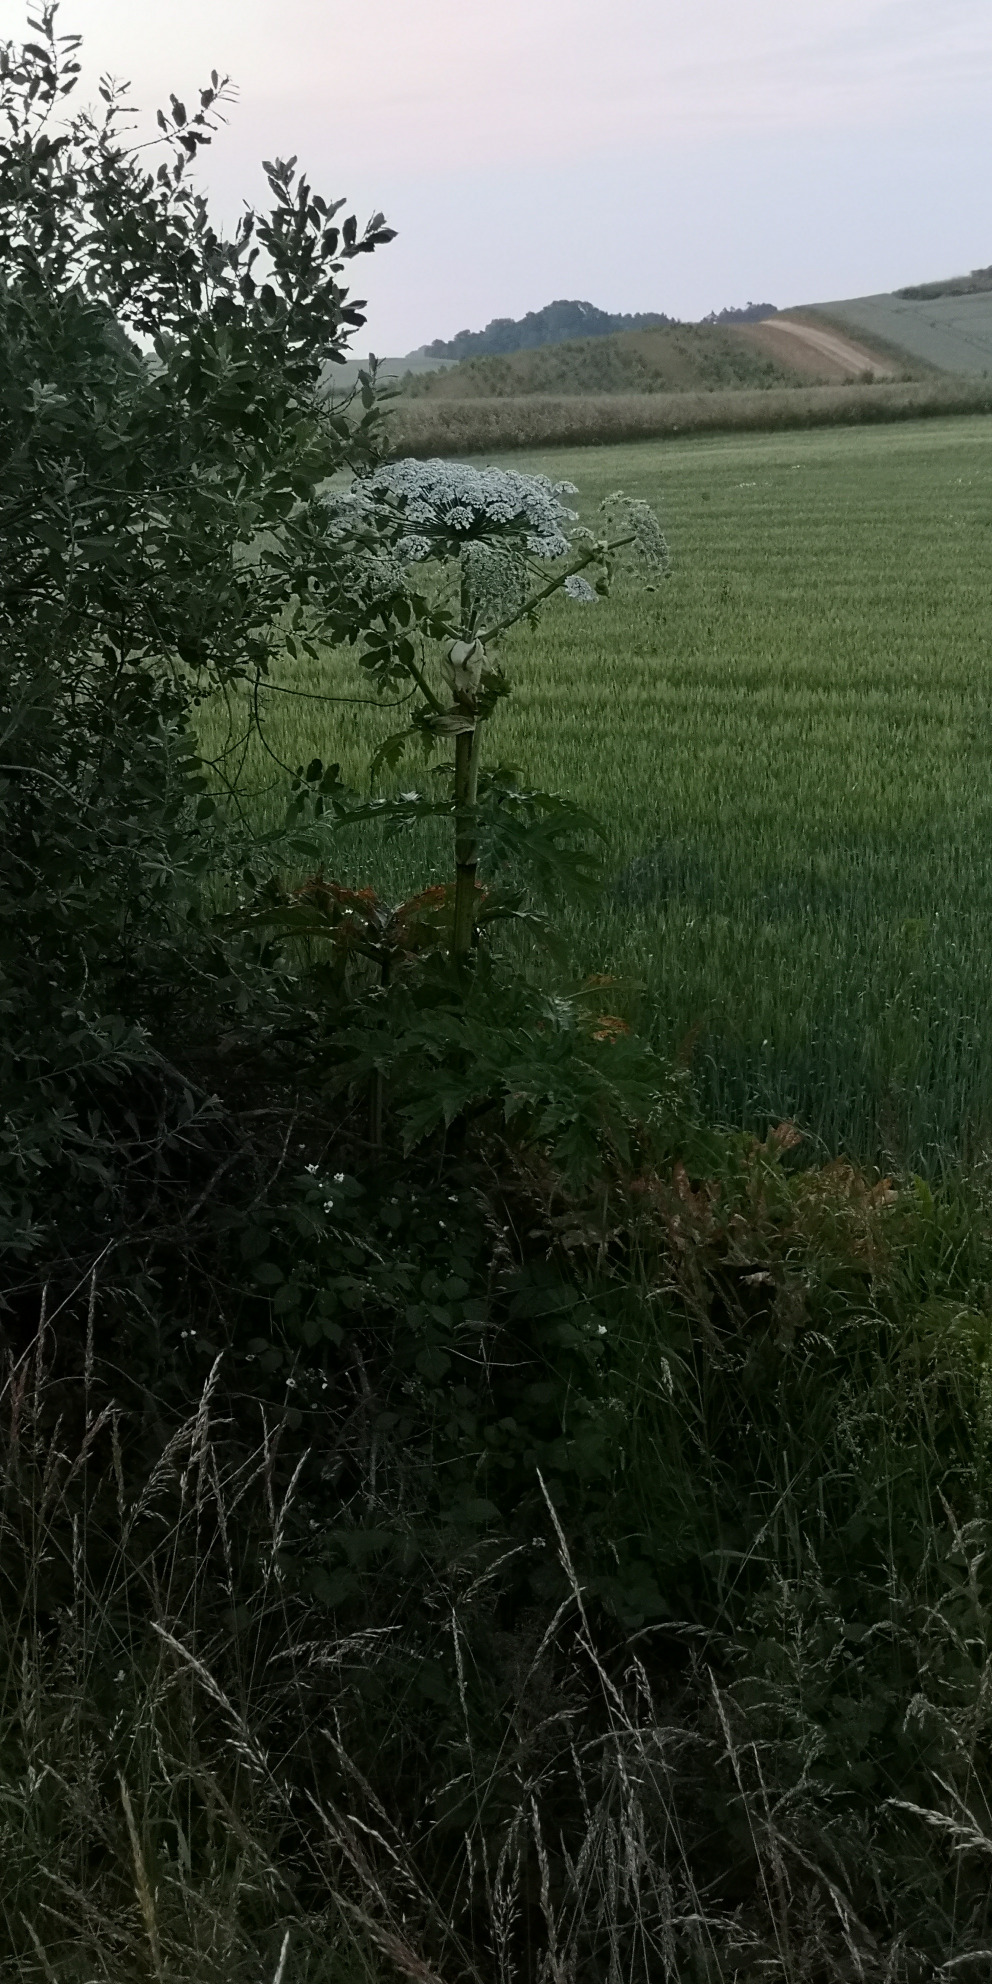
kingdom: Plantae
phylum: Tracheophyta
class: Magnoliopsida
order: Apiales
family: Apiaceae
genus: Heracleum
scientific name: Heracleum mantegazzianum
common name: Kæmpe-bjørneklo
